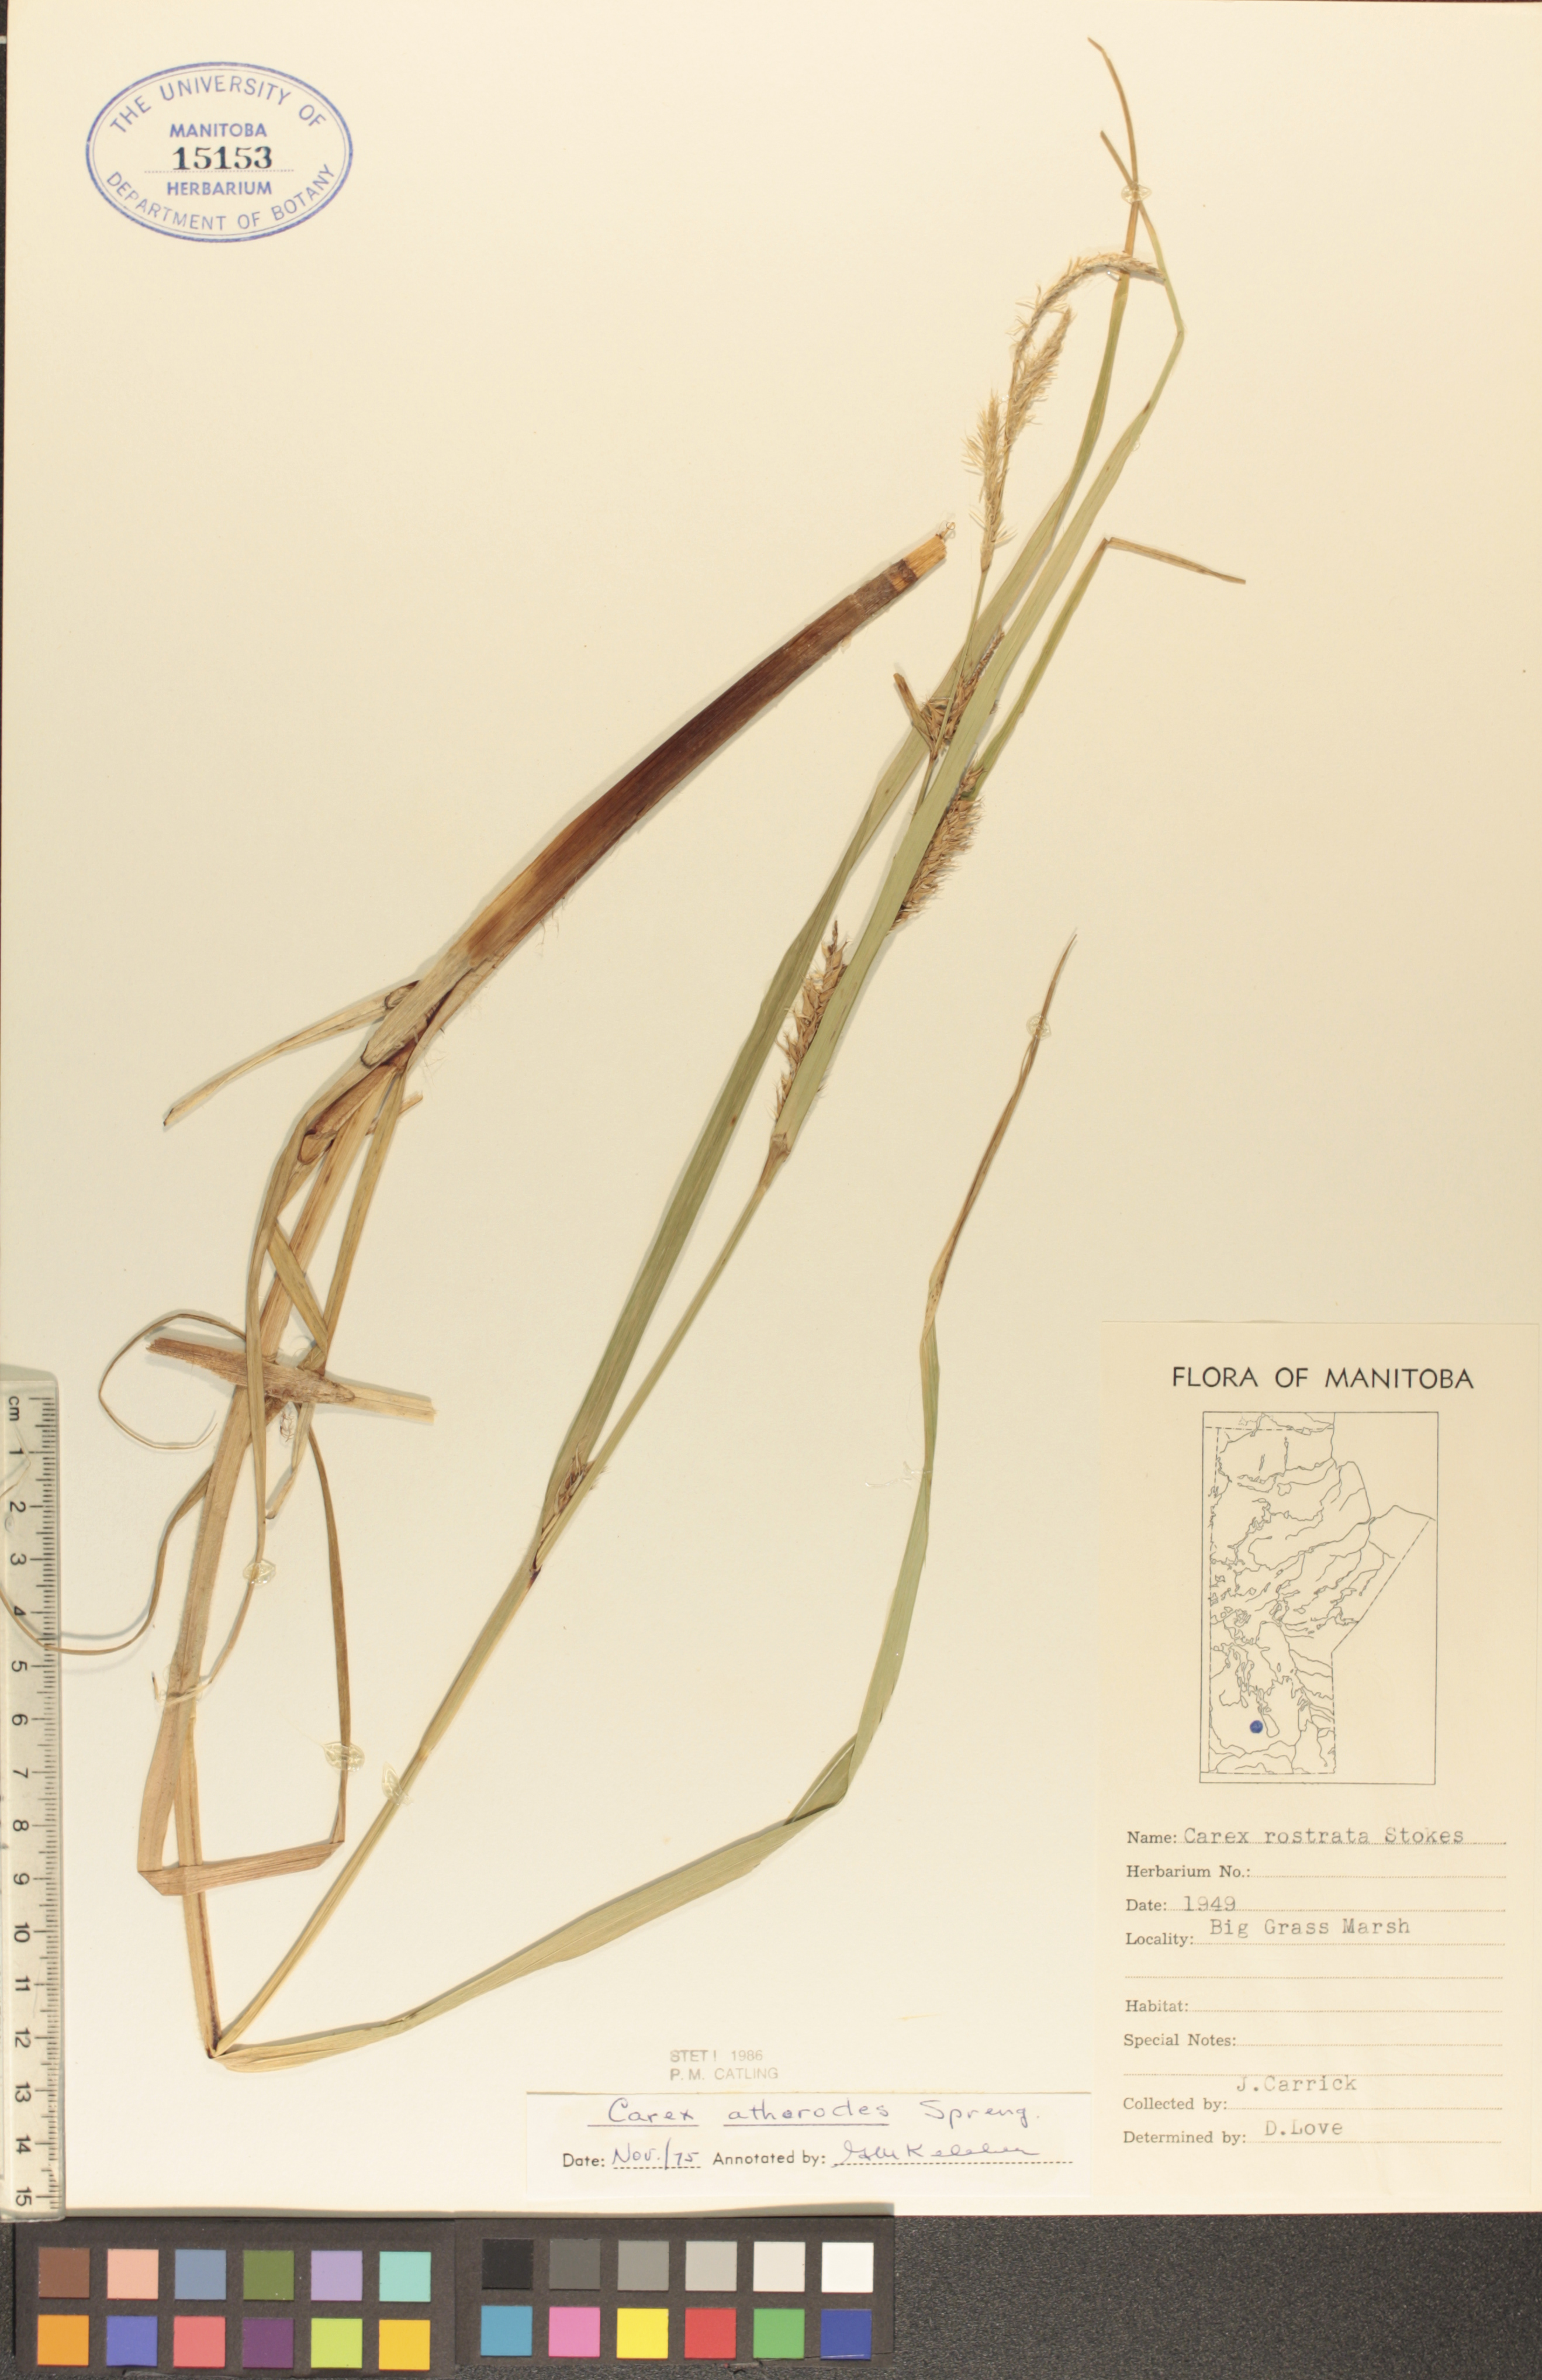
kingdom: Plantae
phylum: Tracheophyta
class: Liliopsida
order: Poales
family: Cyperaceae
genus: Carex
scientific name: Carex atherodes
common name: Wheat sedge
